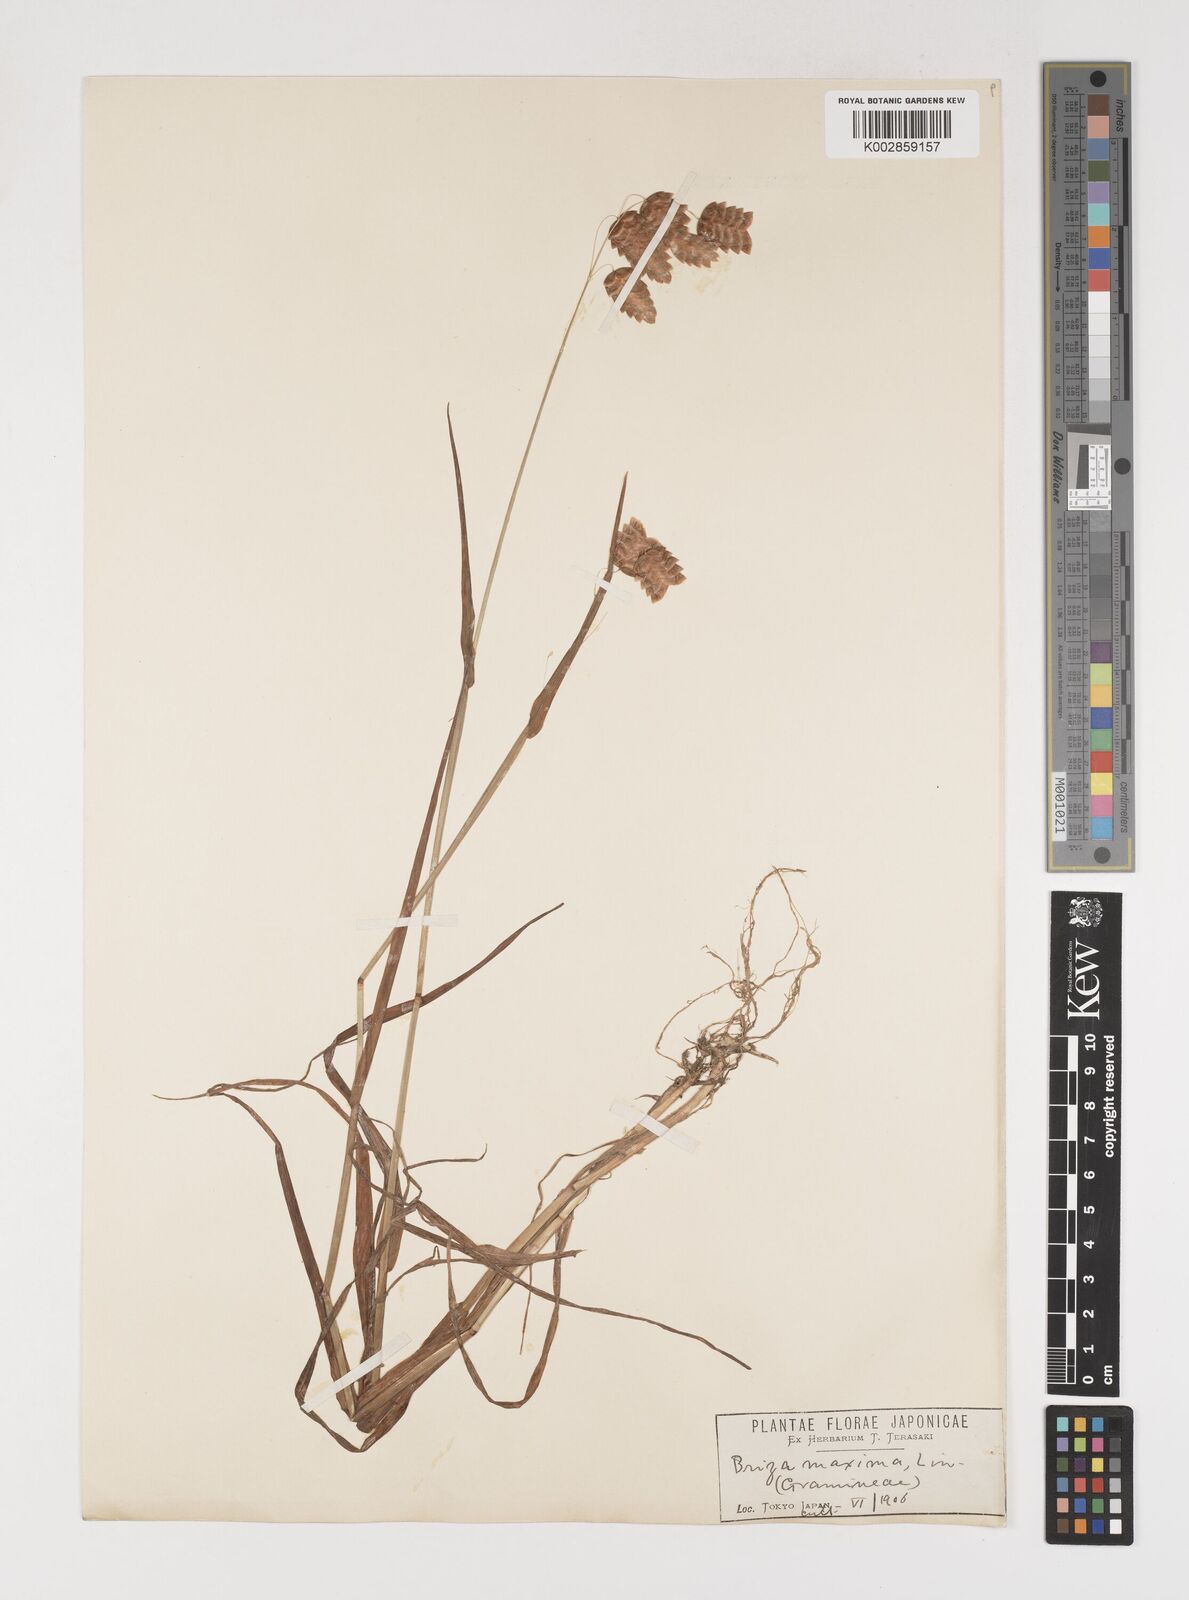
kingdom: Plantae
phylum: Tracheophyta
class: Liliopsida
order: Poales
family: Poaceae
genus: Briza
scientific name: Briza maxima
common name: Big quakinggrass
